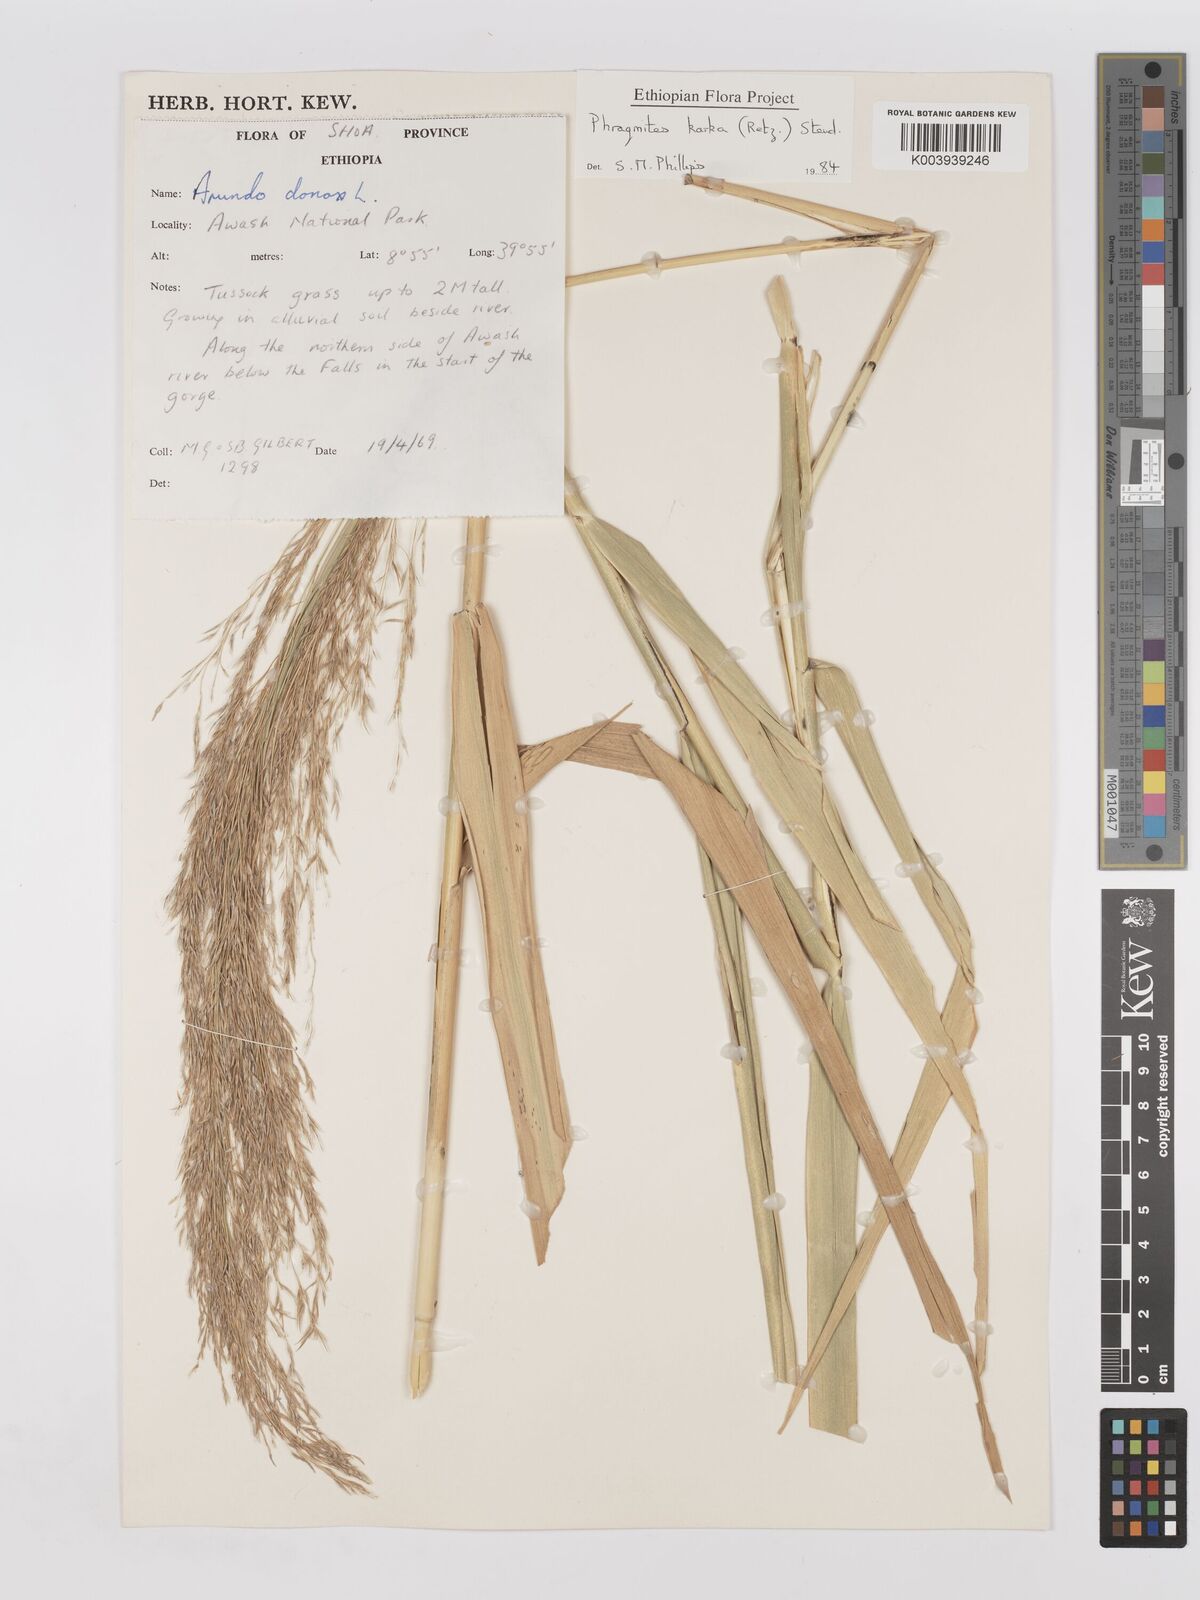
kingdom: Plantae
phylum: Tracheophyta
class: Liliopsida
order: Poales
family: Poaceae
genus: Phragmites
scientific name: Phragmites karka
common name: Tropical reed
